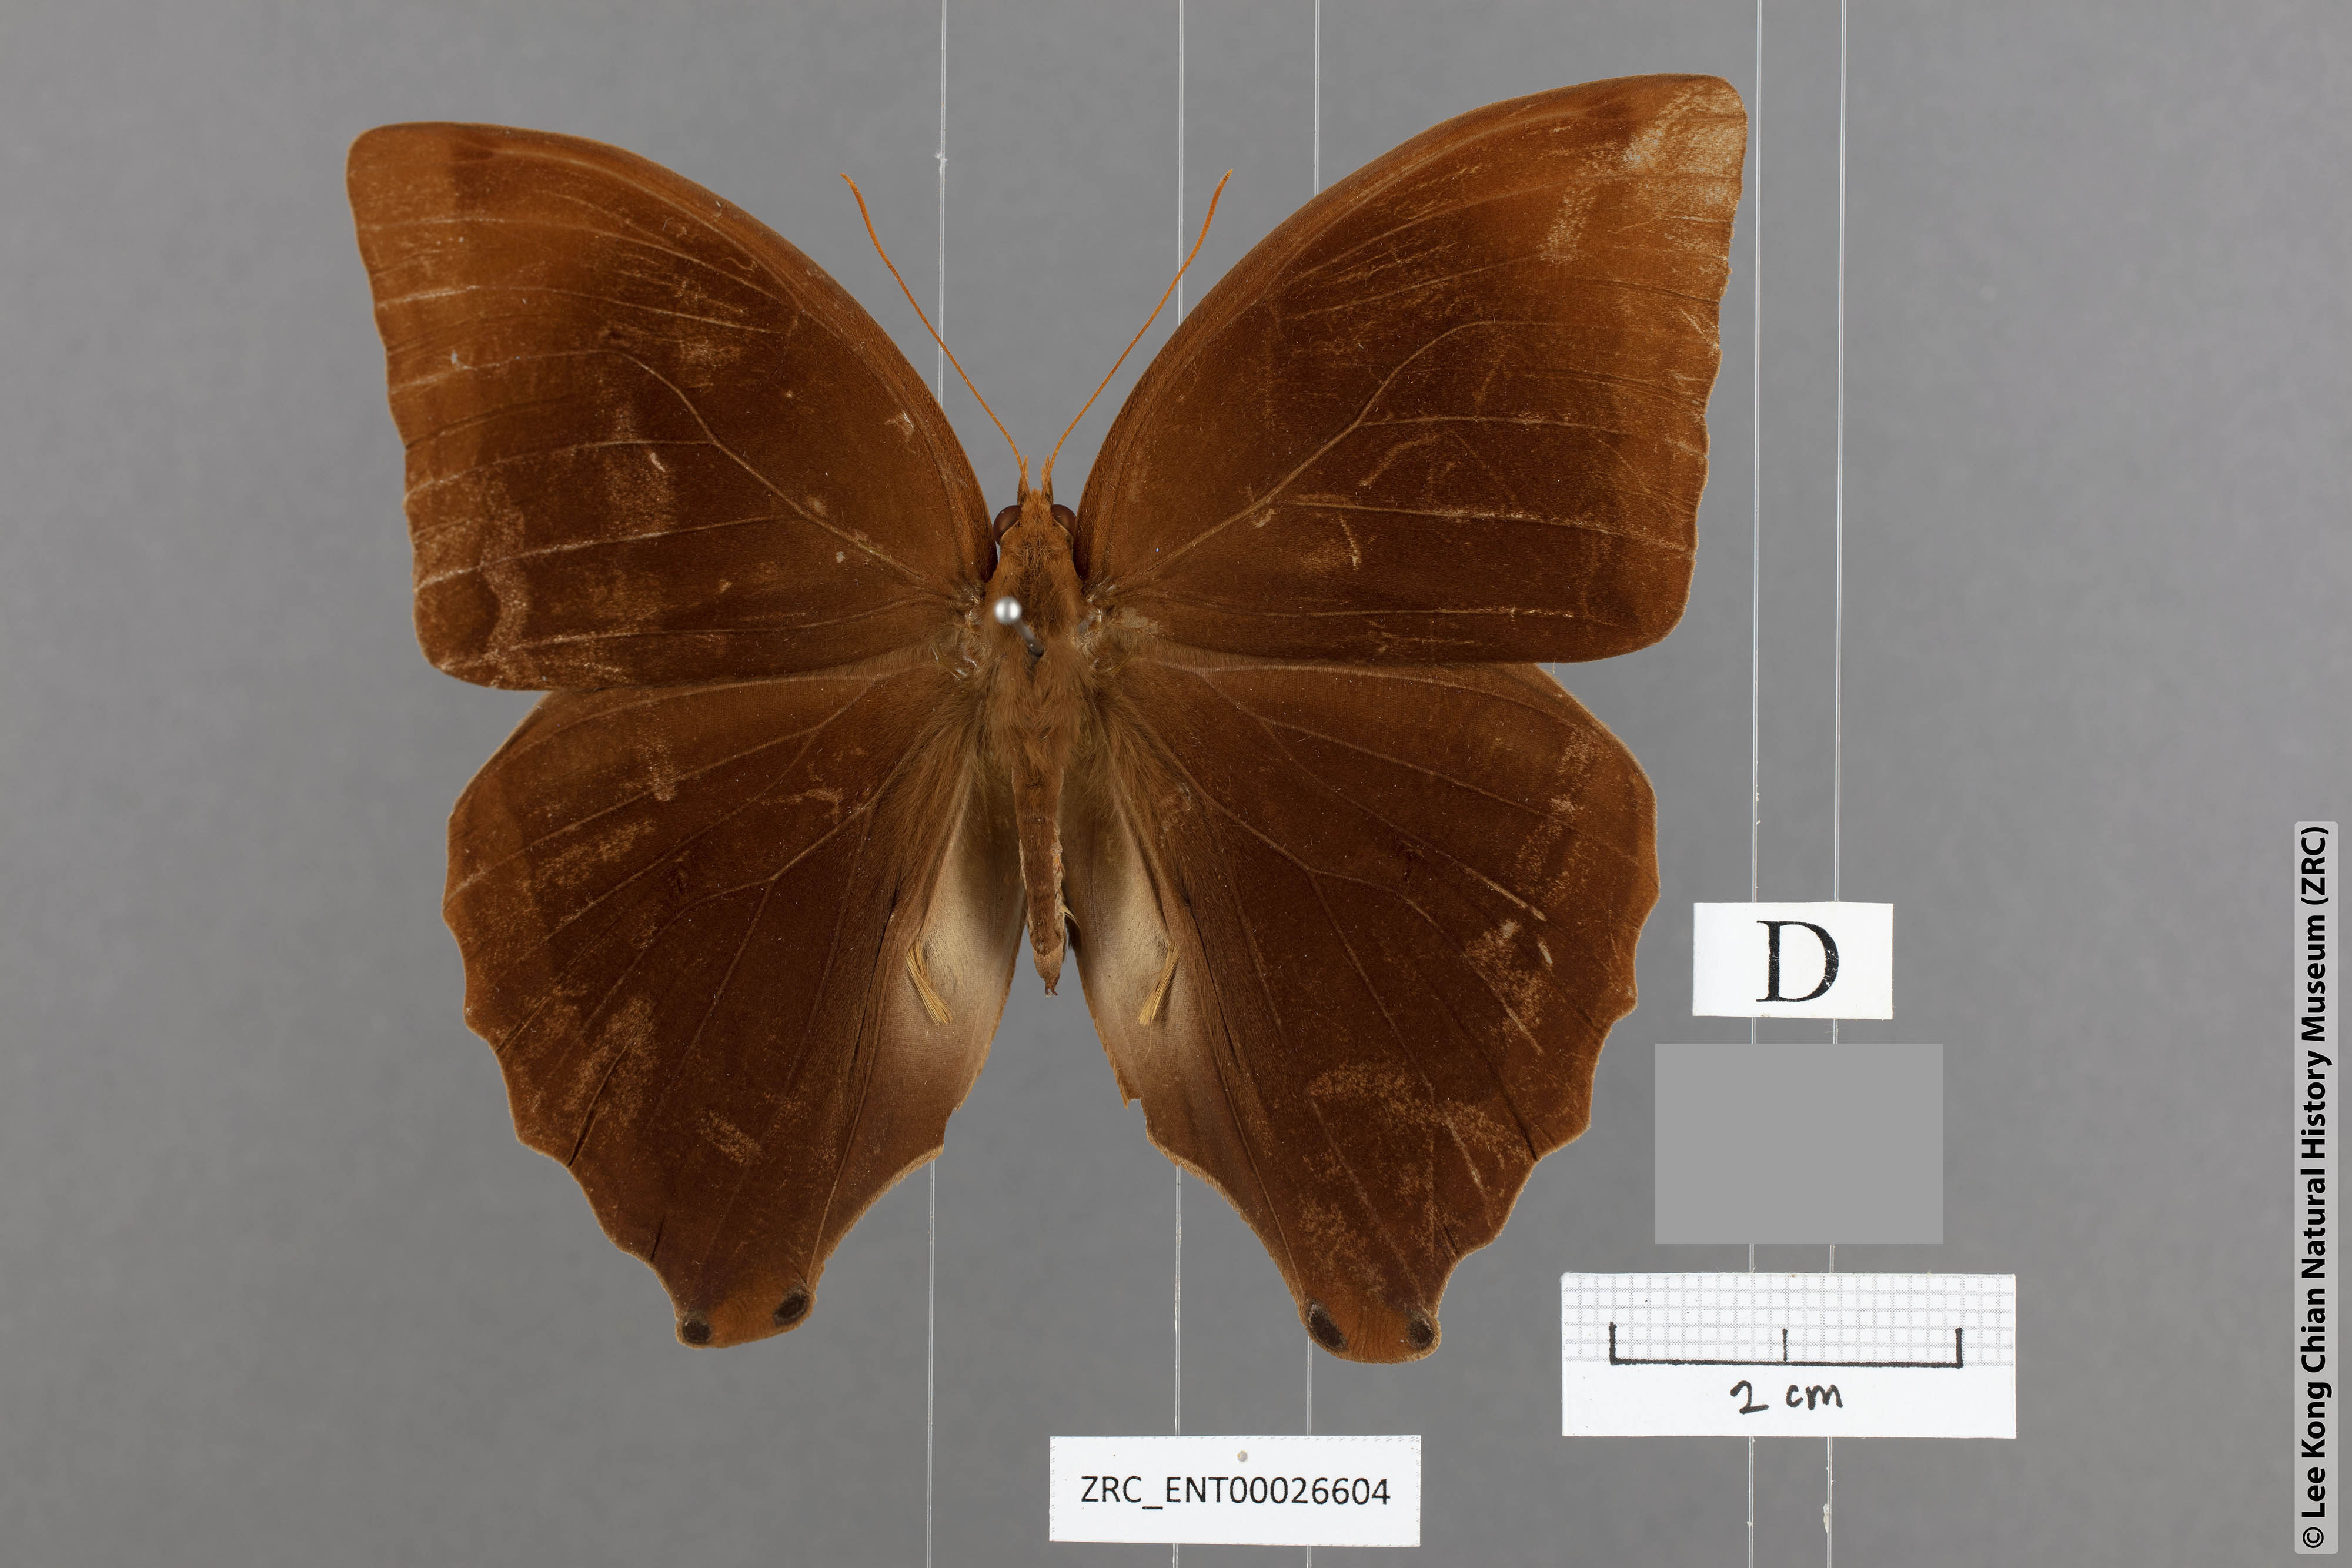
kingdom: Animalia
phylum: Arthropoda
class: Insecta
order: Lepidoptera
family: Nymphalidae
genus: Amathusia
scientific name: Amathusia friderici
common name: Bicolor-haired palm king
